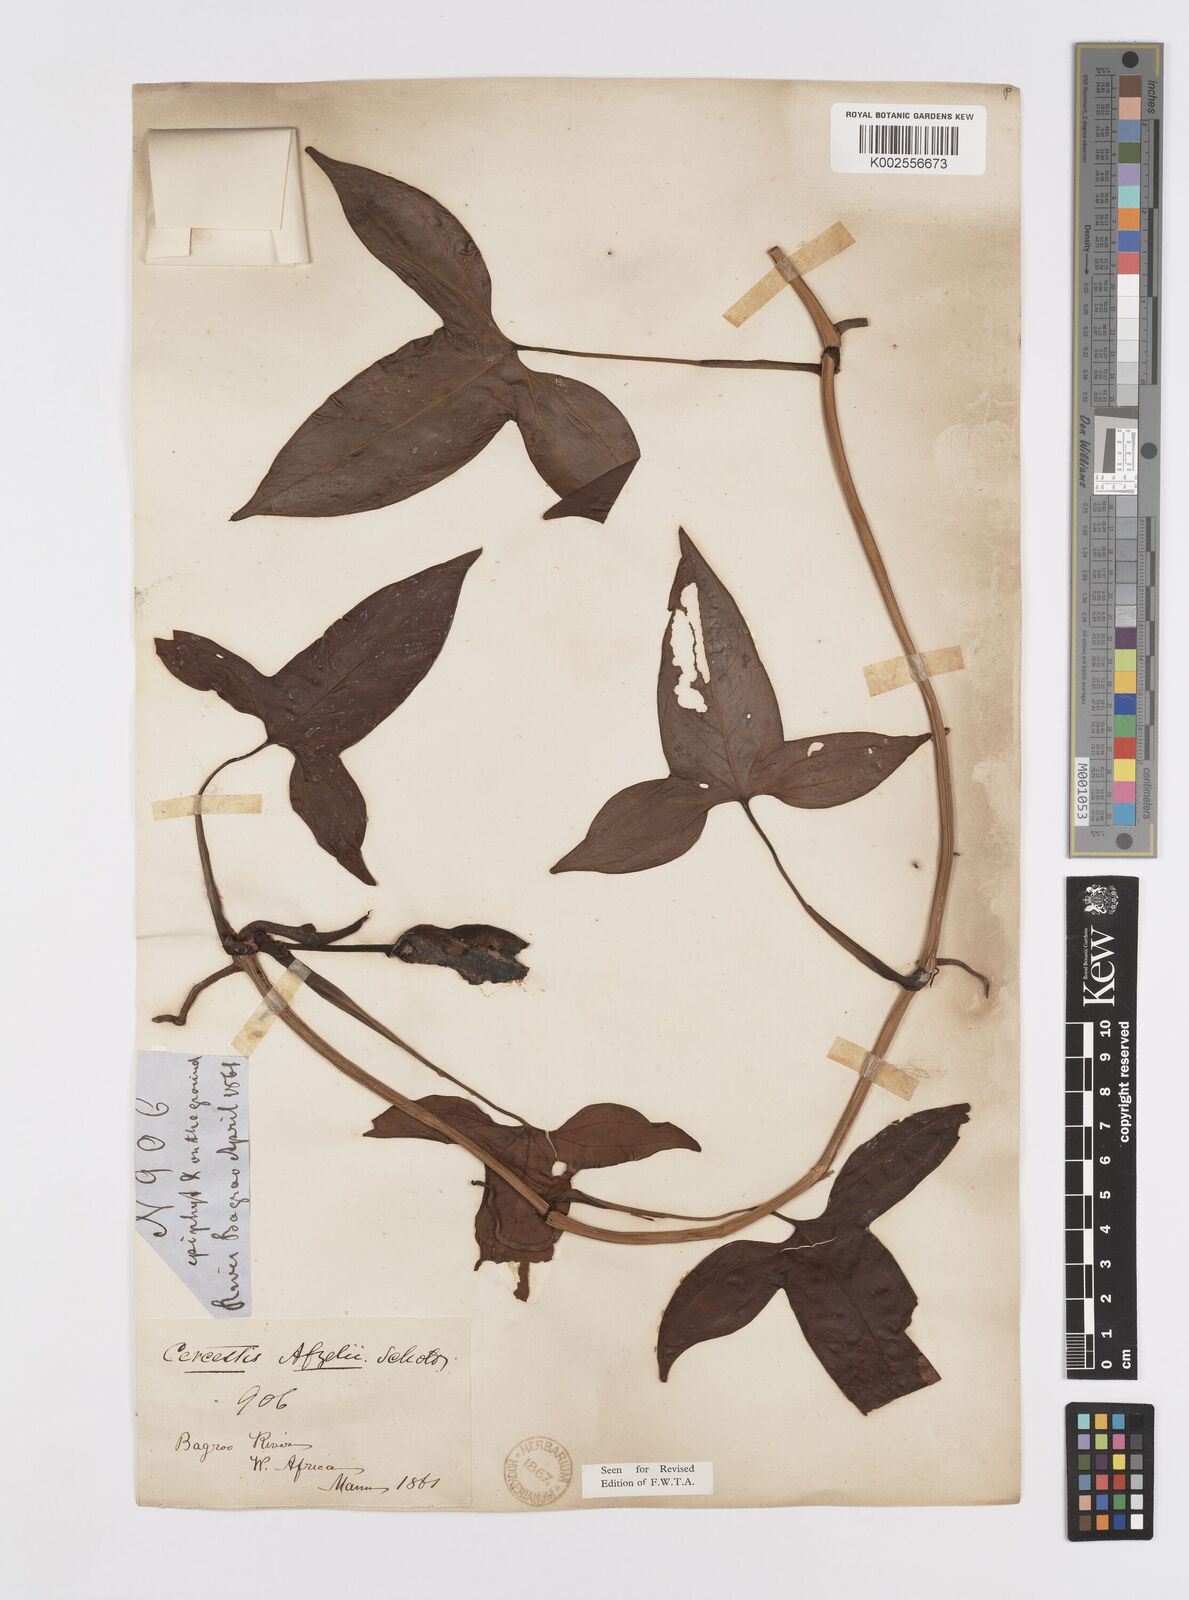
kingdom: Plantae
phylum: Tracheophyta
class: Liliopsida
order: Alismatales
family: Araceae
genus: Cercestis
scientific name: Cercestis afzelii
